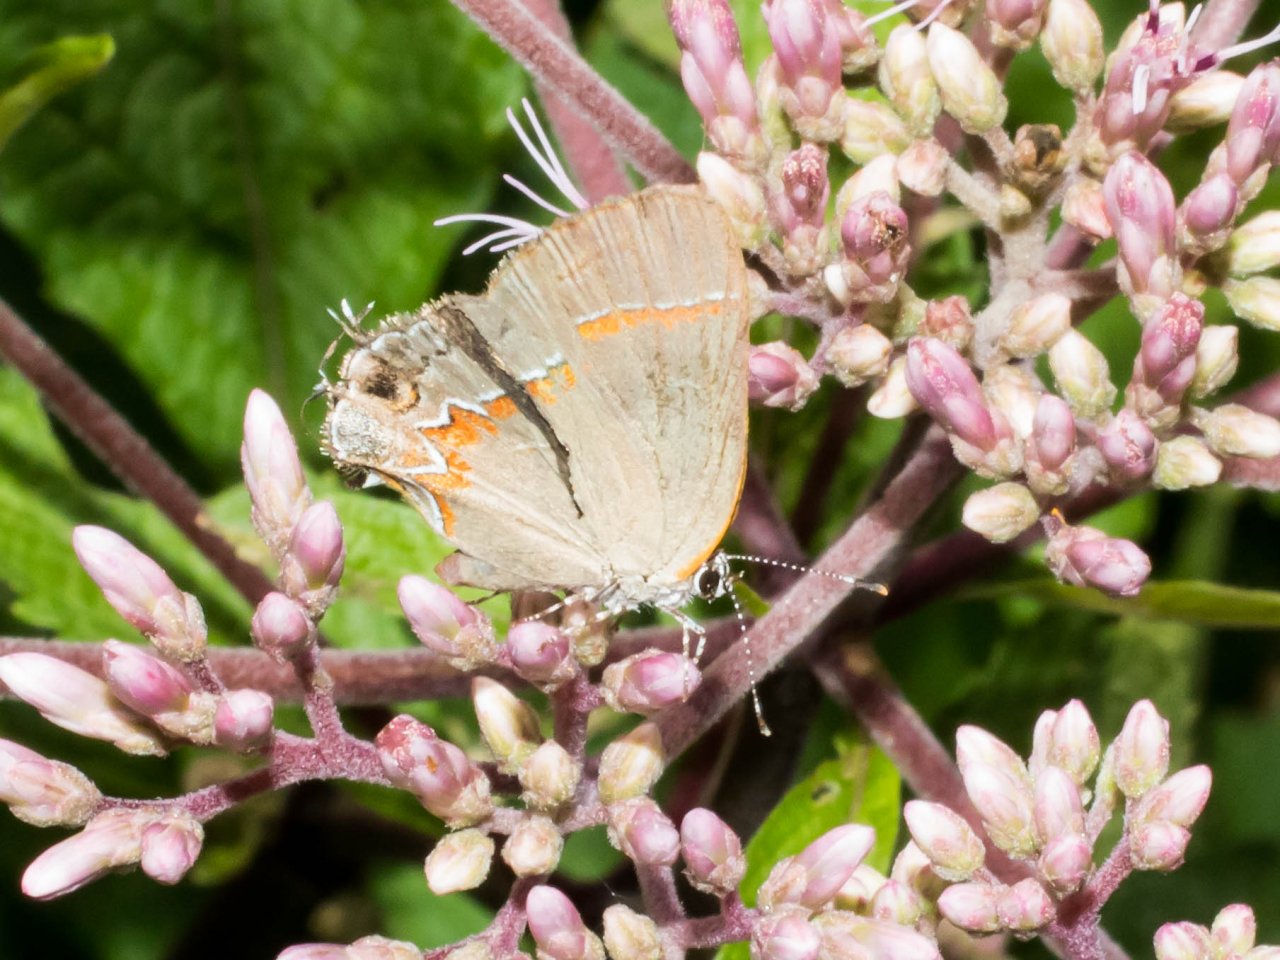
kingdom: Animalia
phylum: Arthropoda
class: Insecta
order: Lepidoptera
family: Lycaenidae
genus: Calycopis
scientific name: Calycopis cecrops
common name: Red-banded Hairstreak
